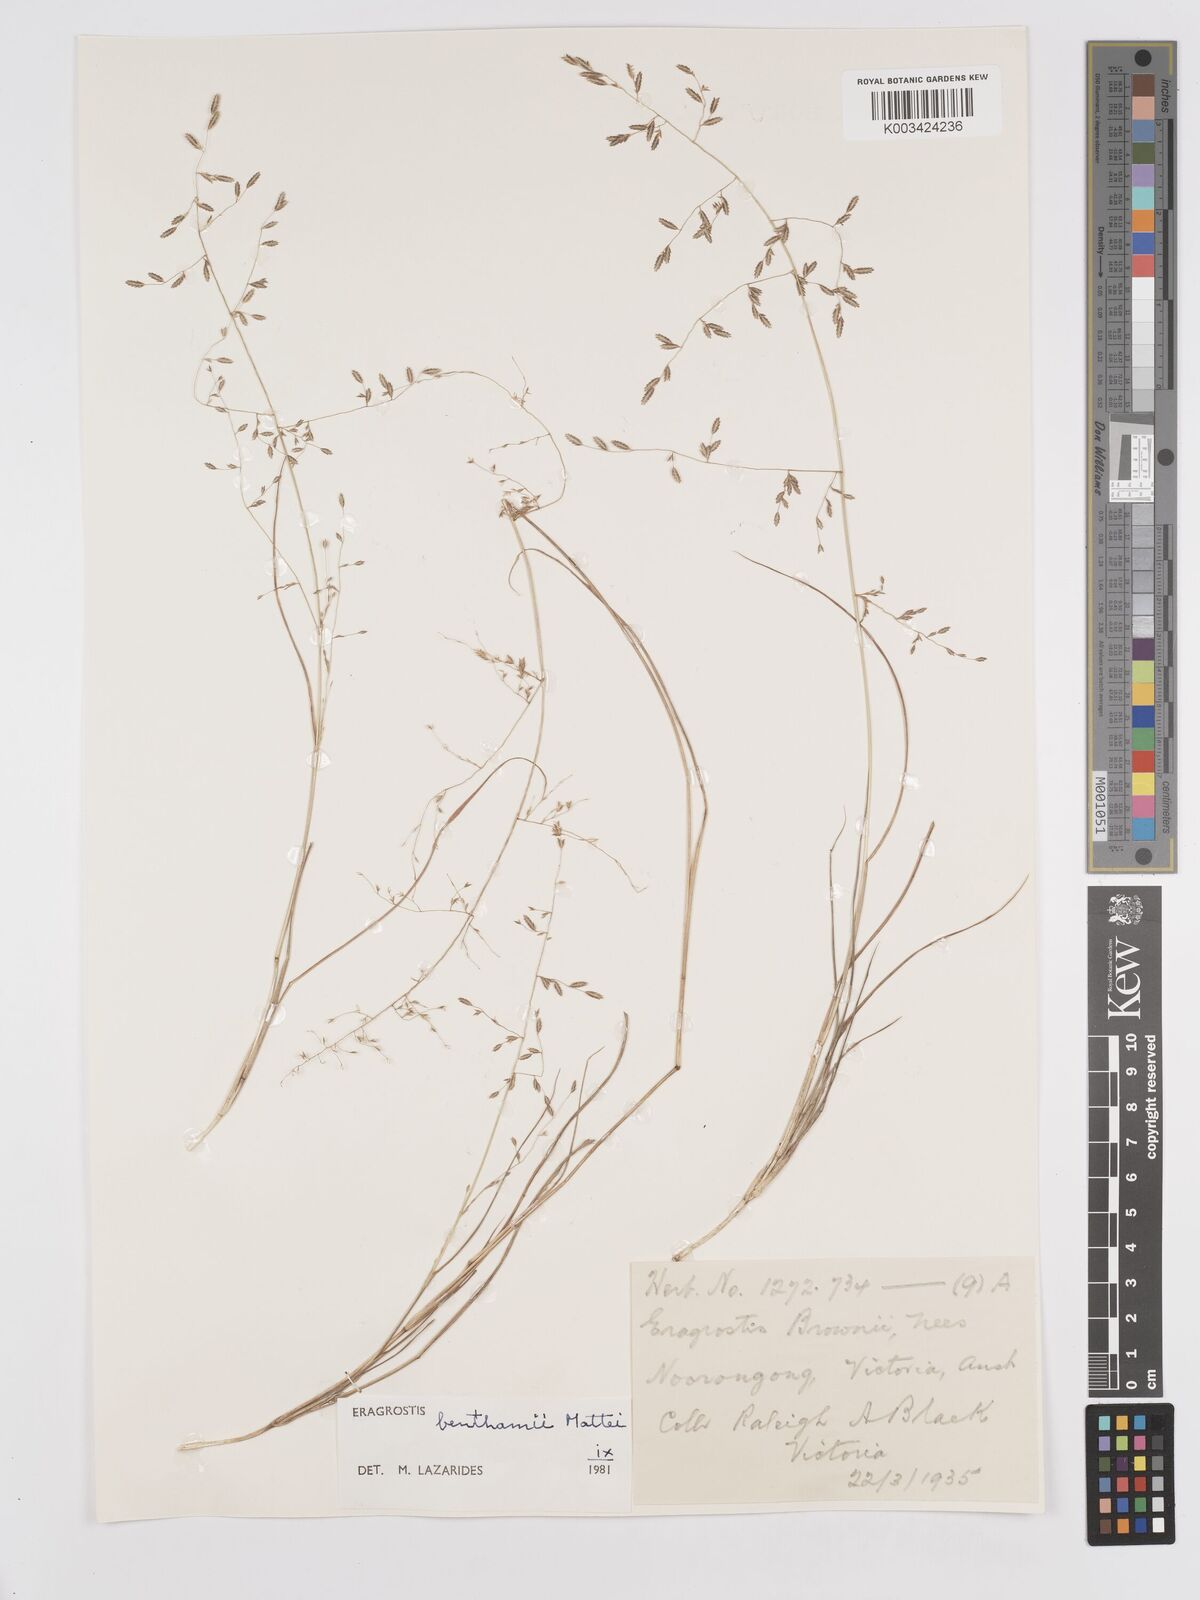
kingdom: Plantae
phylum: Tracheophyta
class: Liliopsida
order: Poales
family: Poaceae
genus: Eragrostis
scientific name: Eragrostis brownii
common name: Lovegrass
